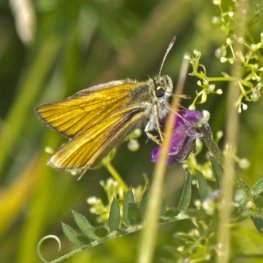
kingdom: Animalia
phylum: Arthropoda
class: Insecta
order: Lepidoptera
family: Hesperiidae
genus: Thymelicus
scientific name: Thymelicus lineola
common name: European Skipper
